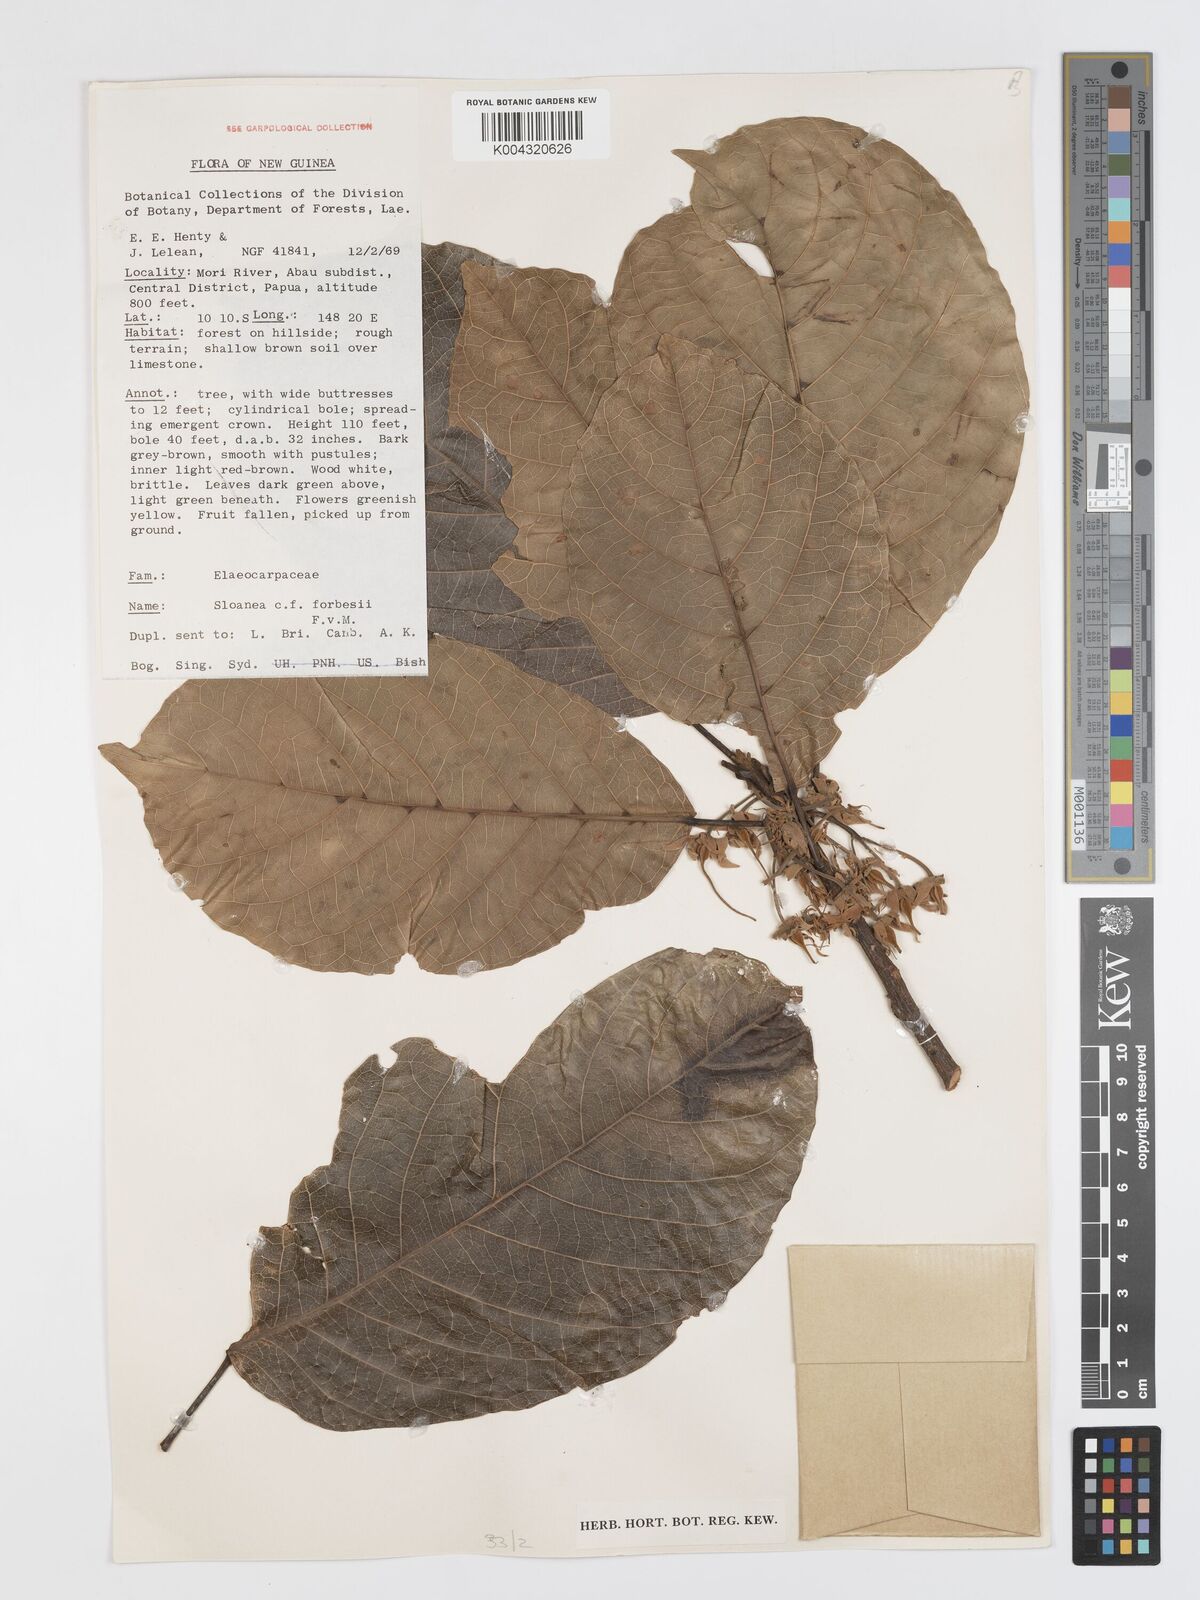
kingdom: Plantae
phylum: Tracheophyta
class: Magnoliopsida
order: Oxalidales
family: Elaeocarpaceae
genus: Sloanea
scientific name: Sloanea forbesii
